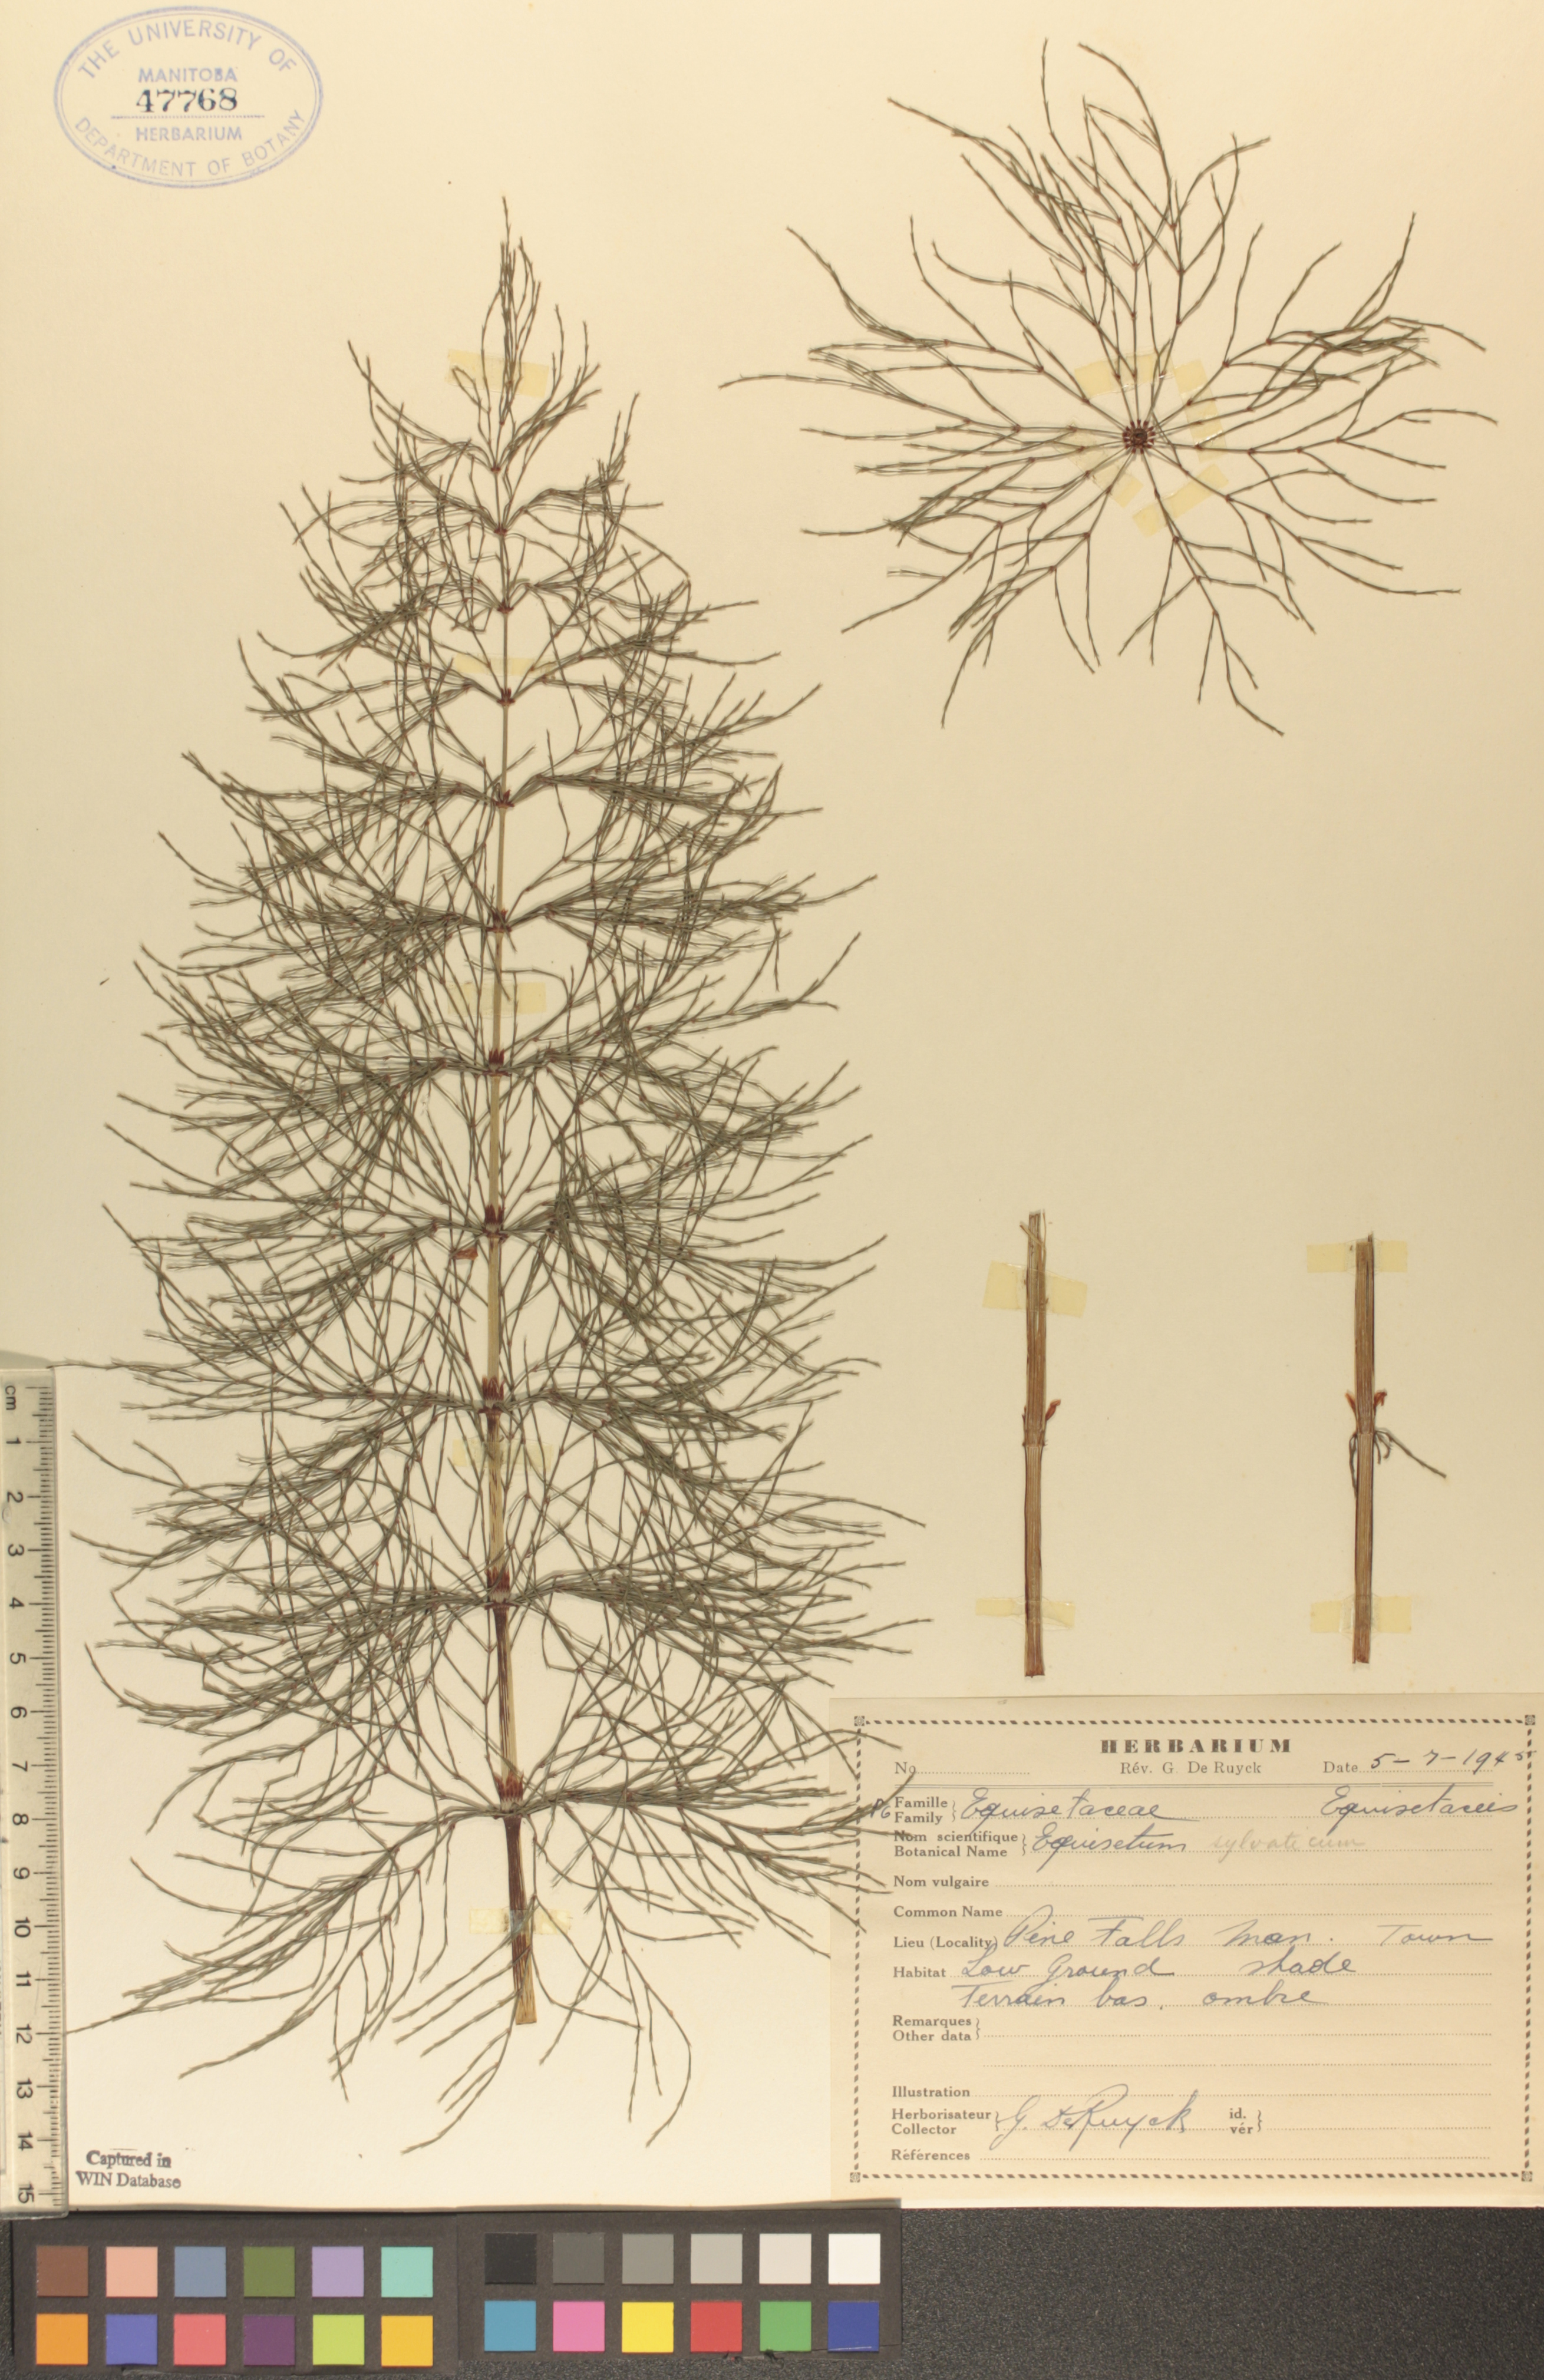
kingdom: Plantae
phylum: Tracheophyta
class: Polypodiopsida
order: Equisetales
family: Equisetaceae
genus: Equisetum
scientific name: Equisetum sylvaticum
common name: Wood horsetail
